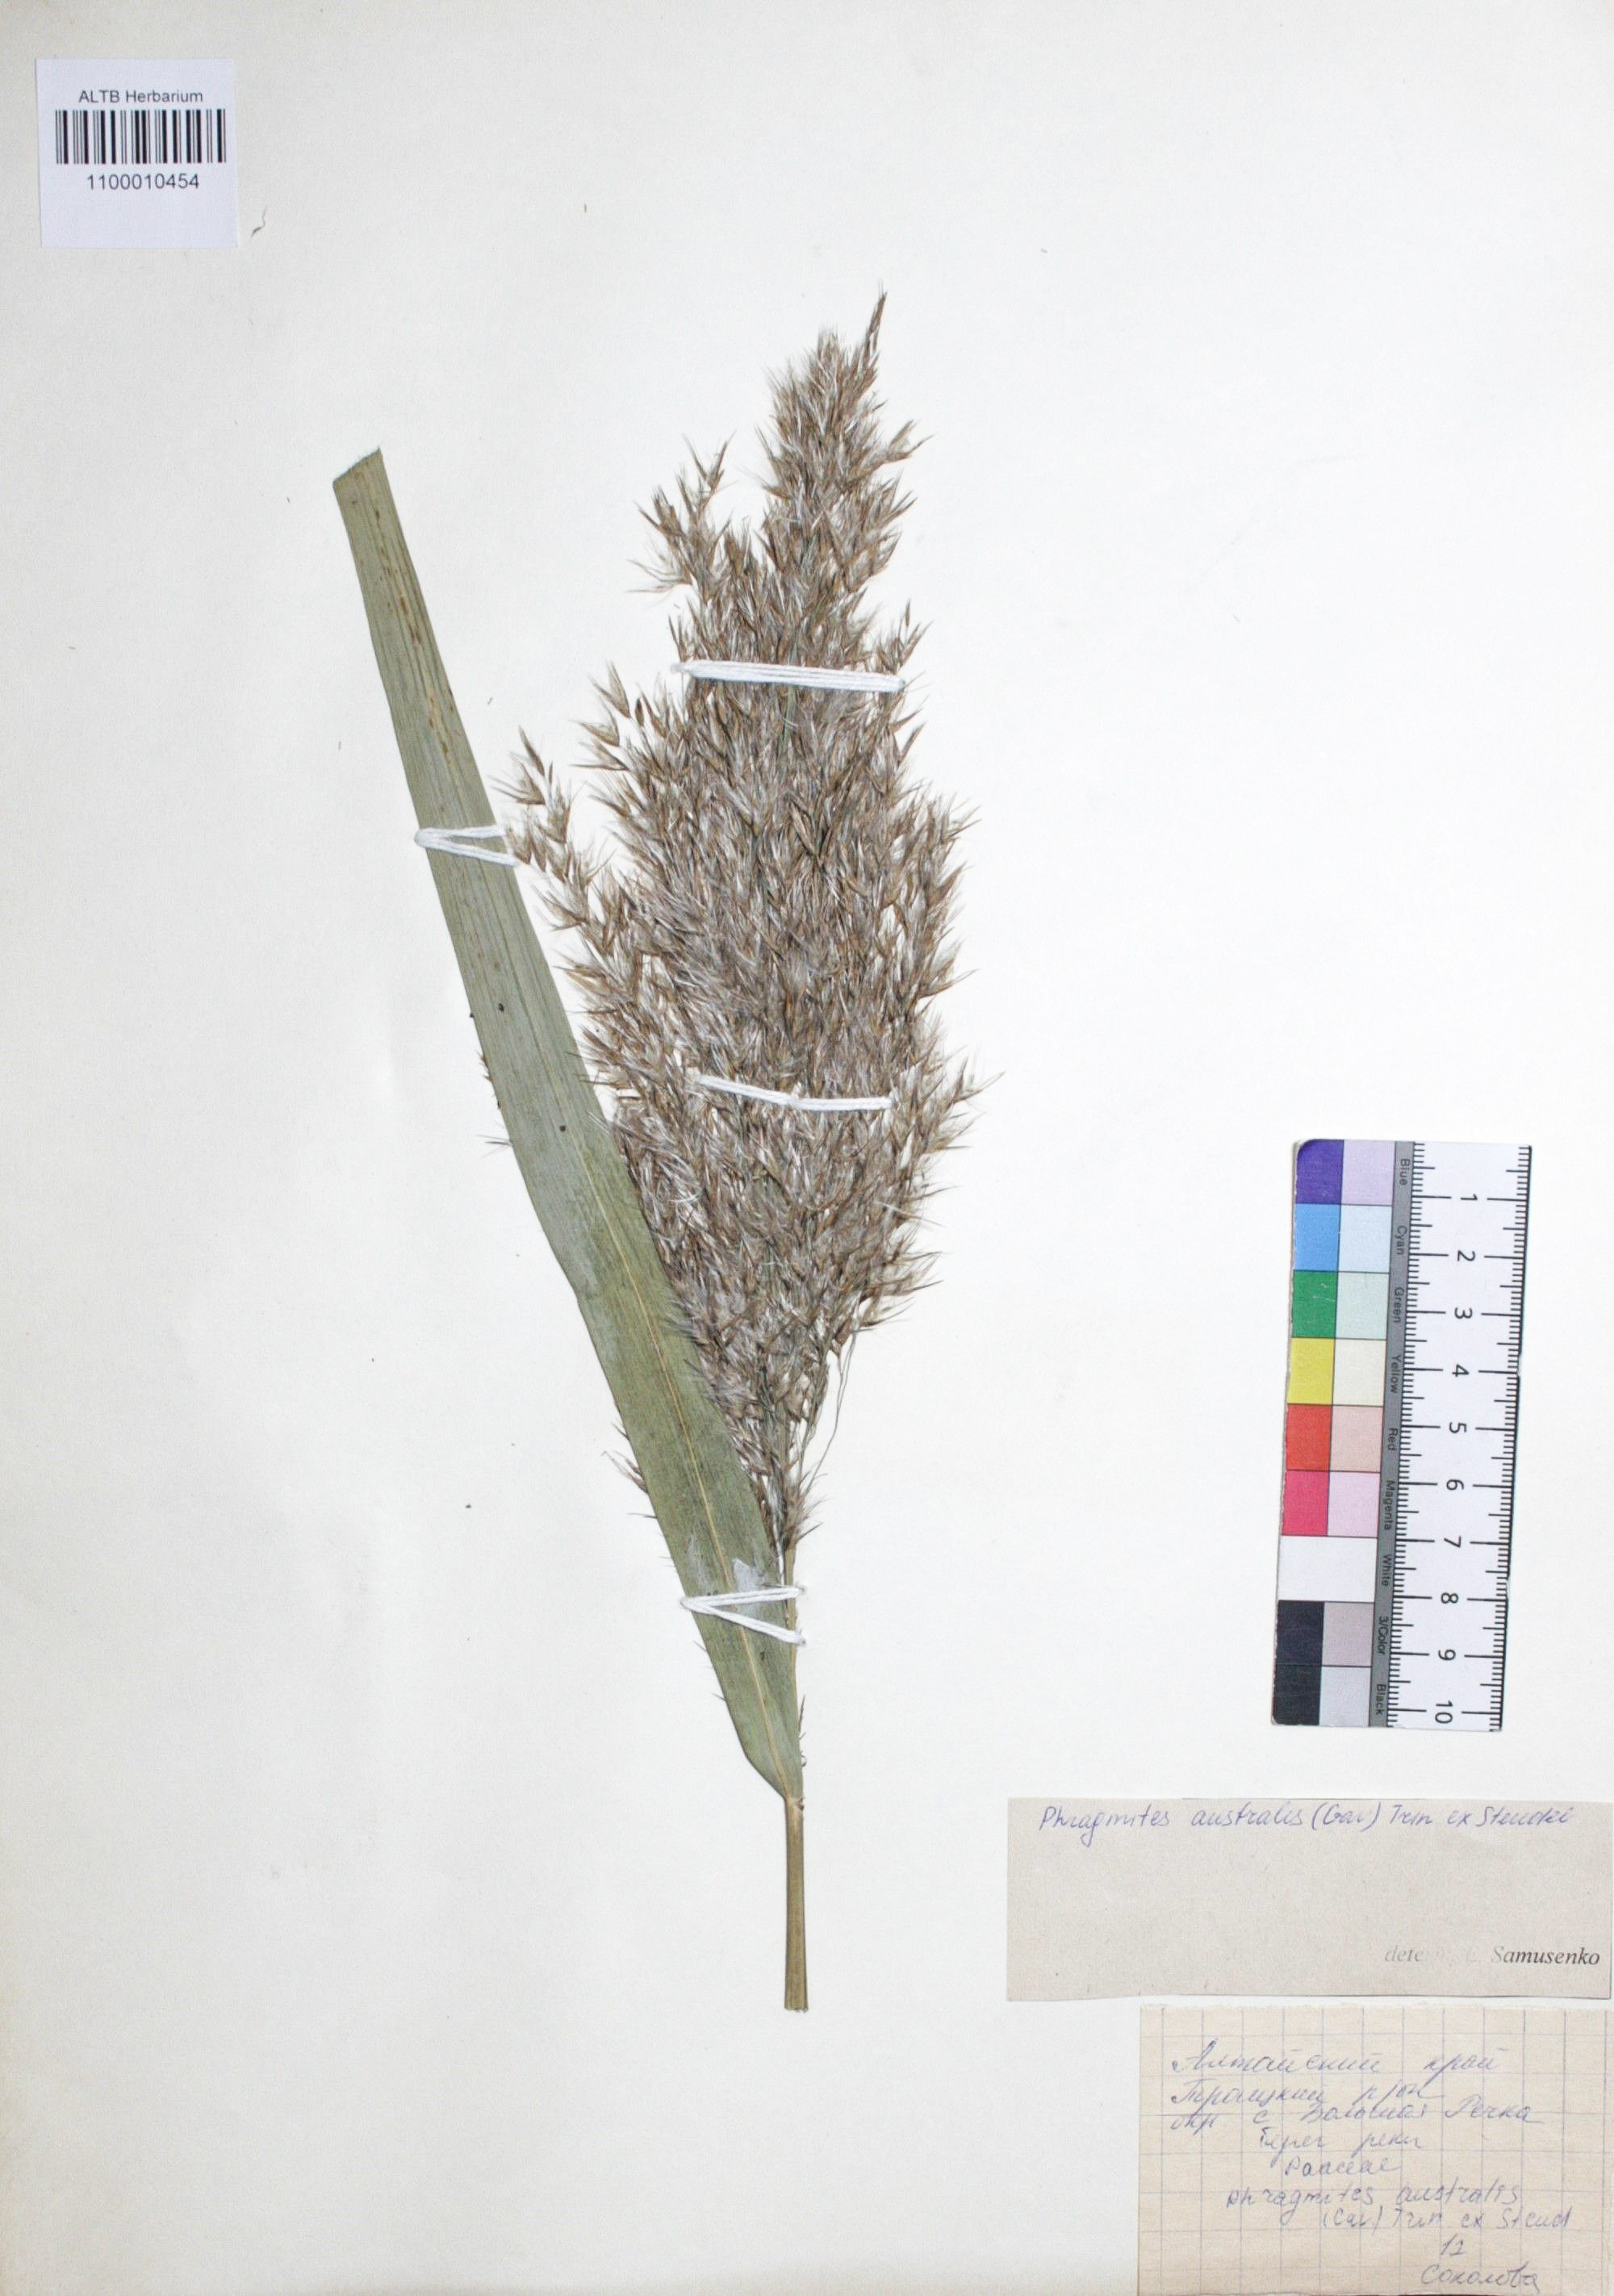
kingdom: Plantae
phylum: Tracheophyta
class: Liliopsida
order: Poales
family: Poaceae
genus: Phragmites
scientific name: Phragmites australis
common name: Common reed
